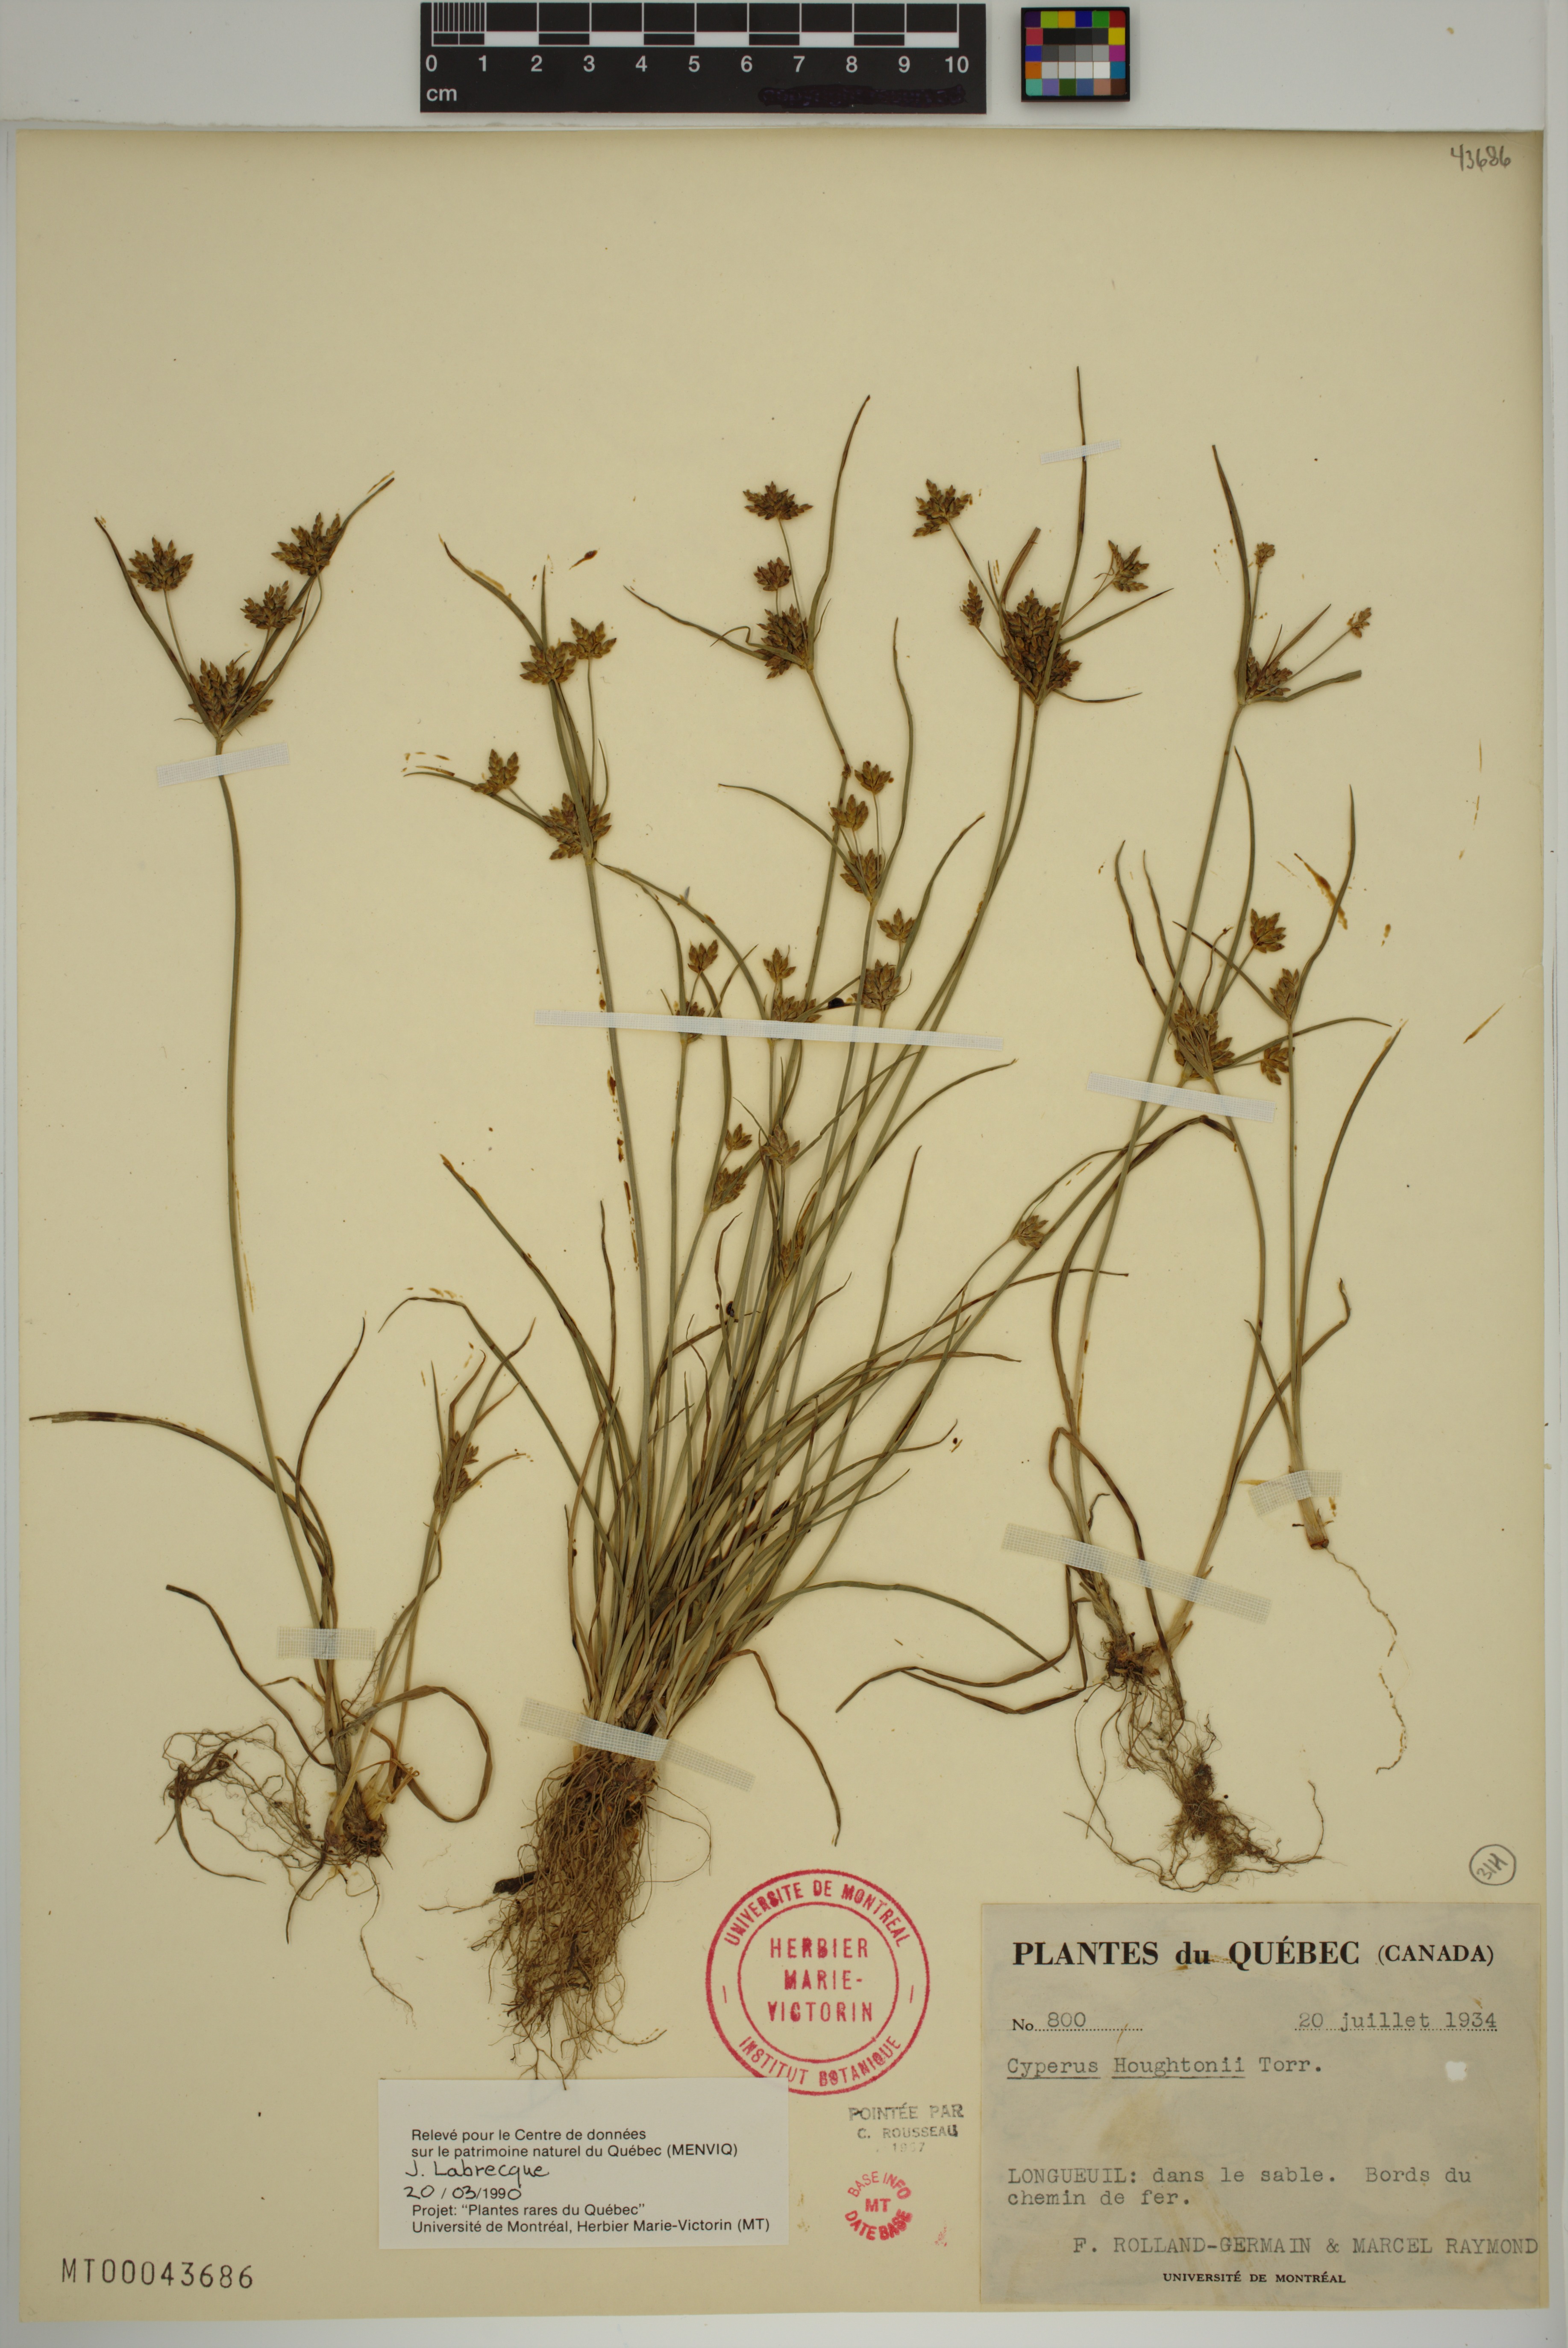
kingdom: Plantae
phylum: Tracheophyta
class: Liliopsida
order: Poales
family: Cyperaceae
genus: Cyperus
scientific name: Cyperus houghtonii
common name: Houghton's cyperus
